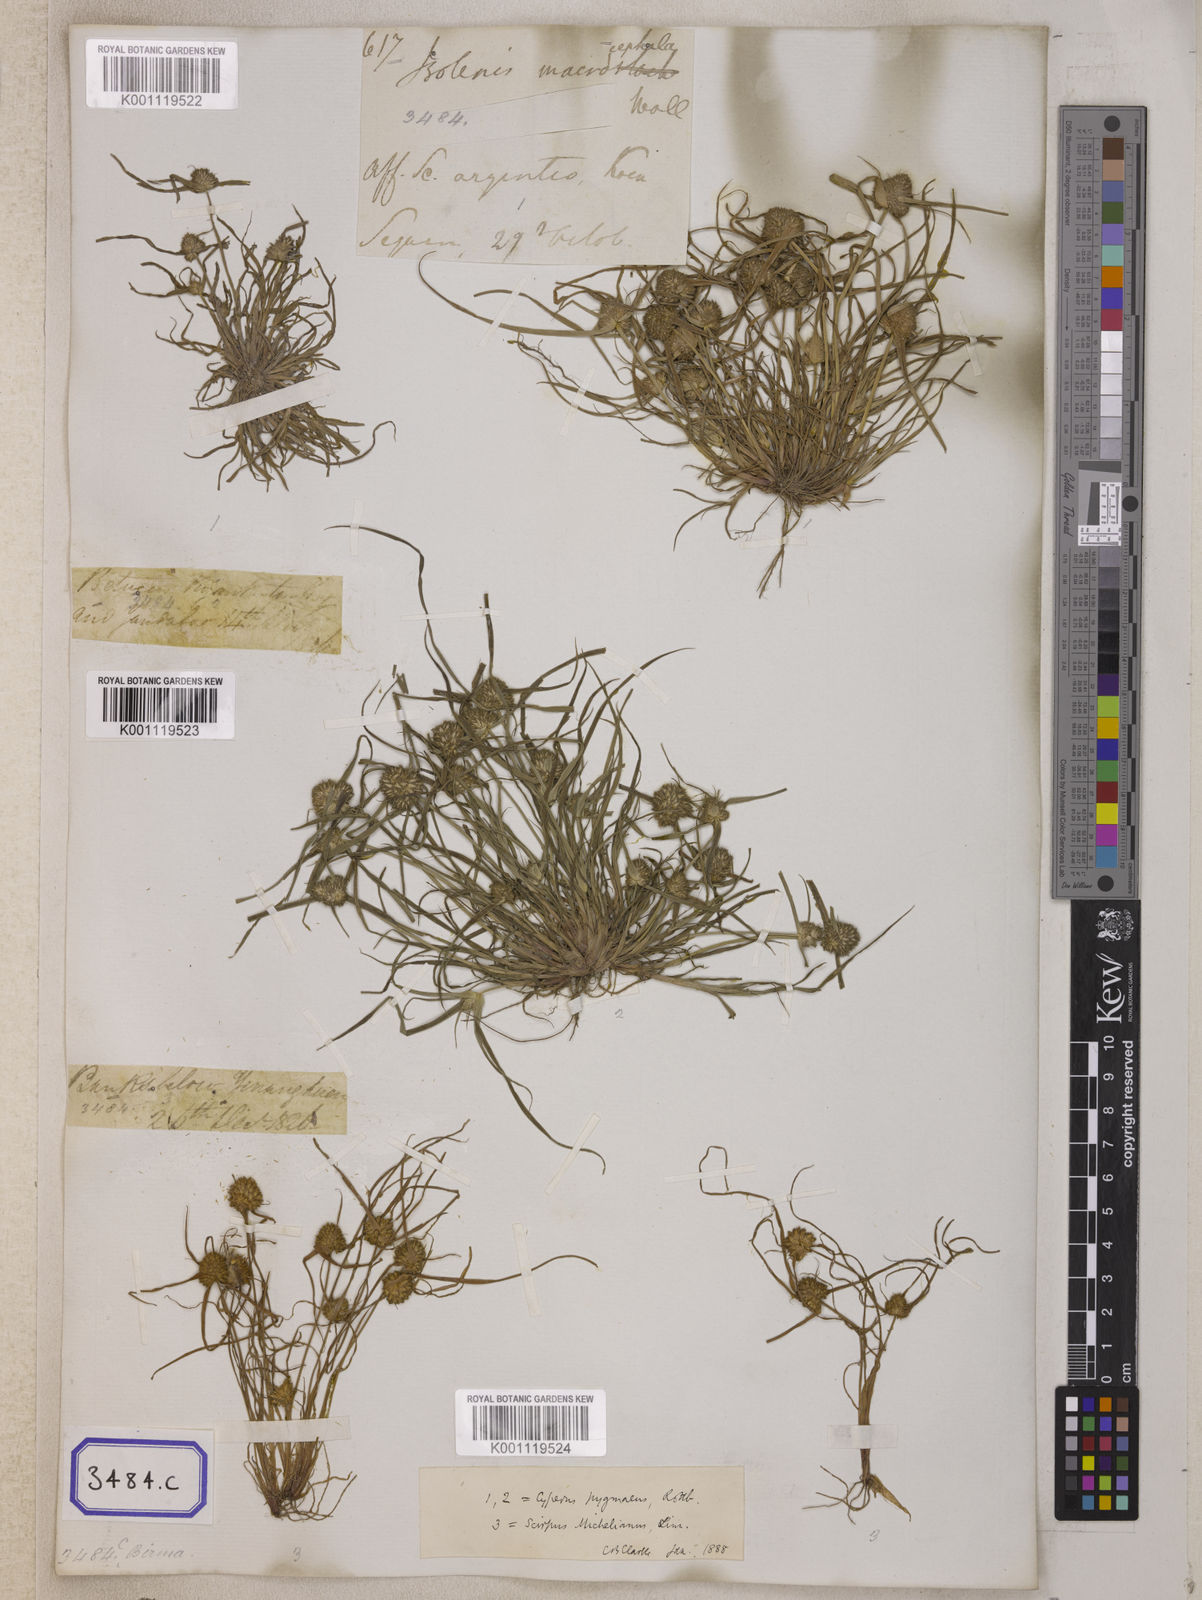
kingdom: Plantae
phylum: Tracheophyta
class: Liliopsida
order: Poales
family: Cyperaceae
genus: Isolepis
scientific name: Isolepis
